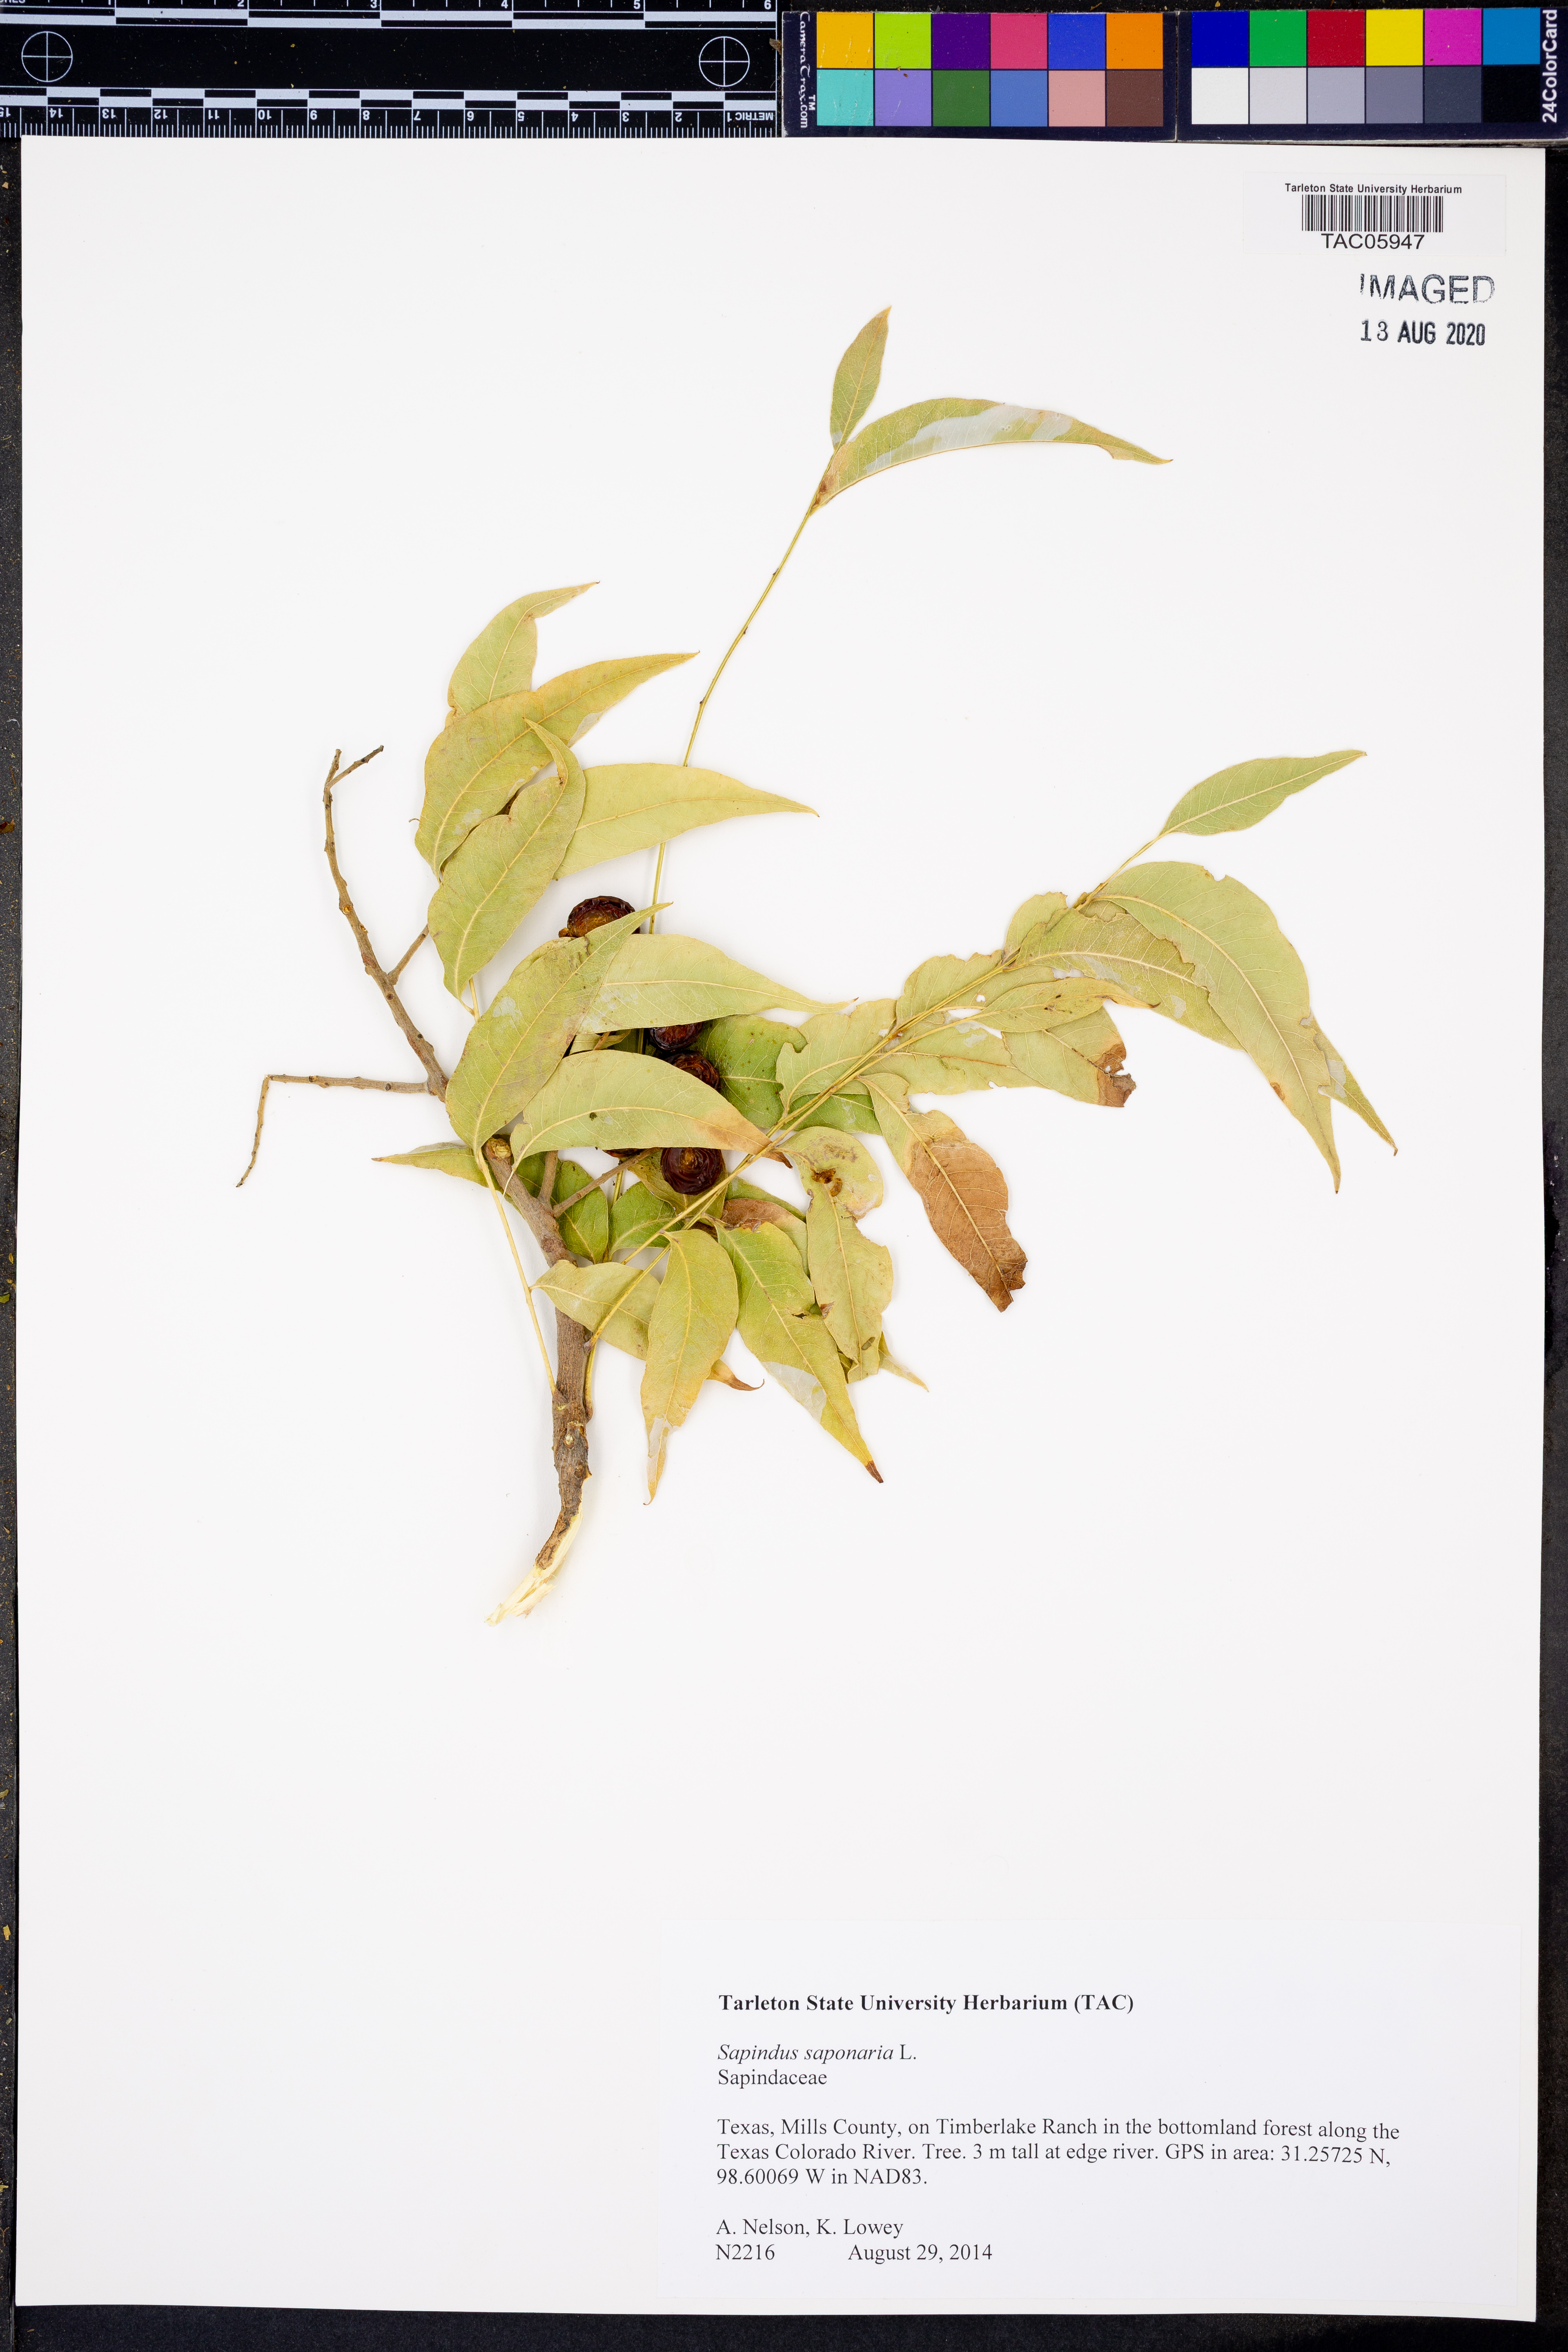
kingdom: Plantae
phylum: Tracheophyta
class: Magnoliopsida
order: Sapindales
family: Sapindaceae
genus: Sapindus
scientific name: Sapindus saponaria
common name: Wingleaf soapberry
